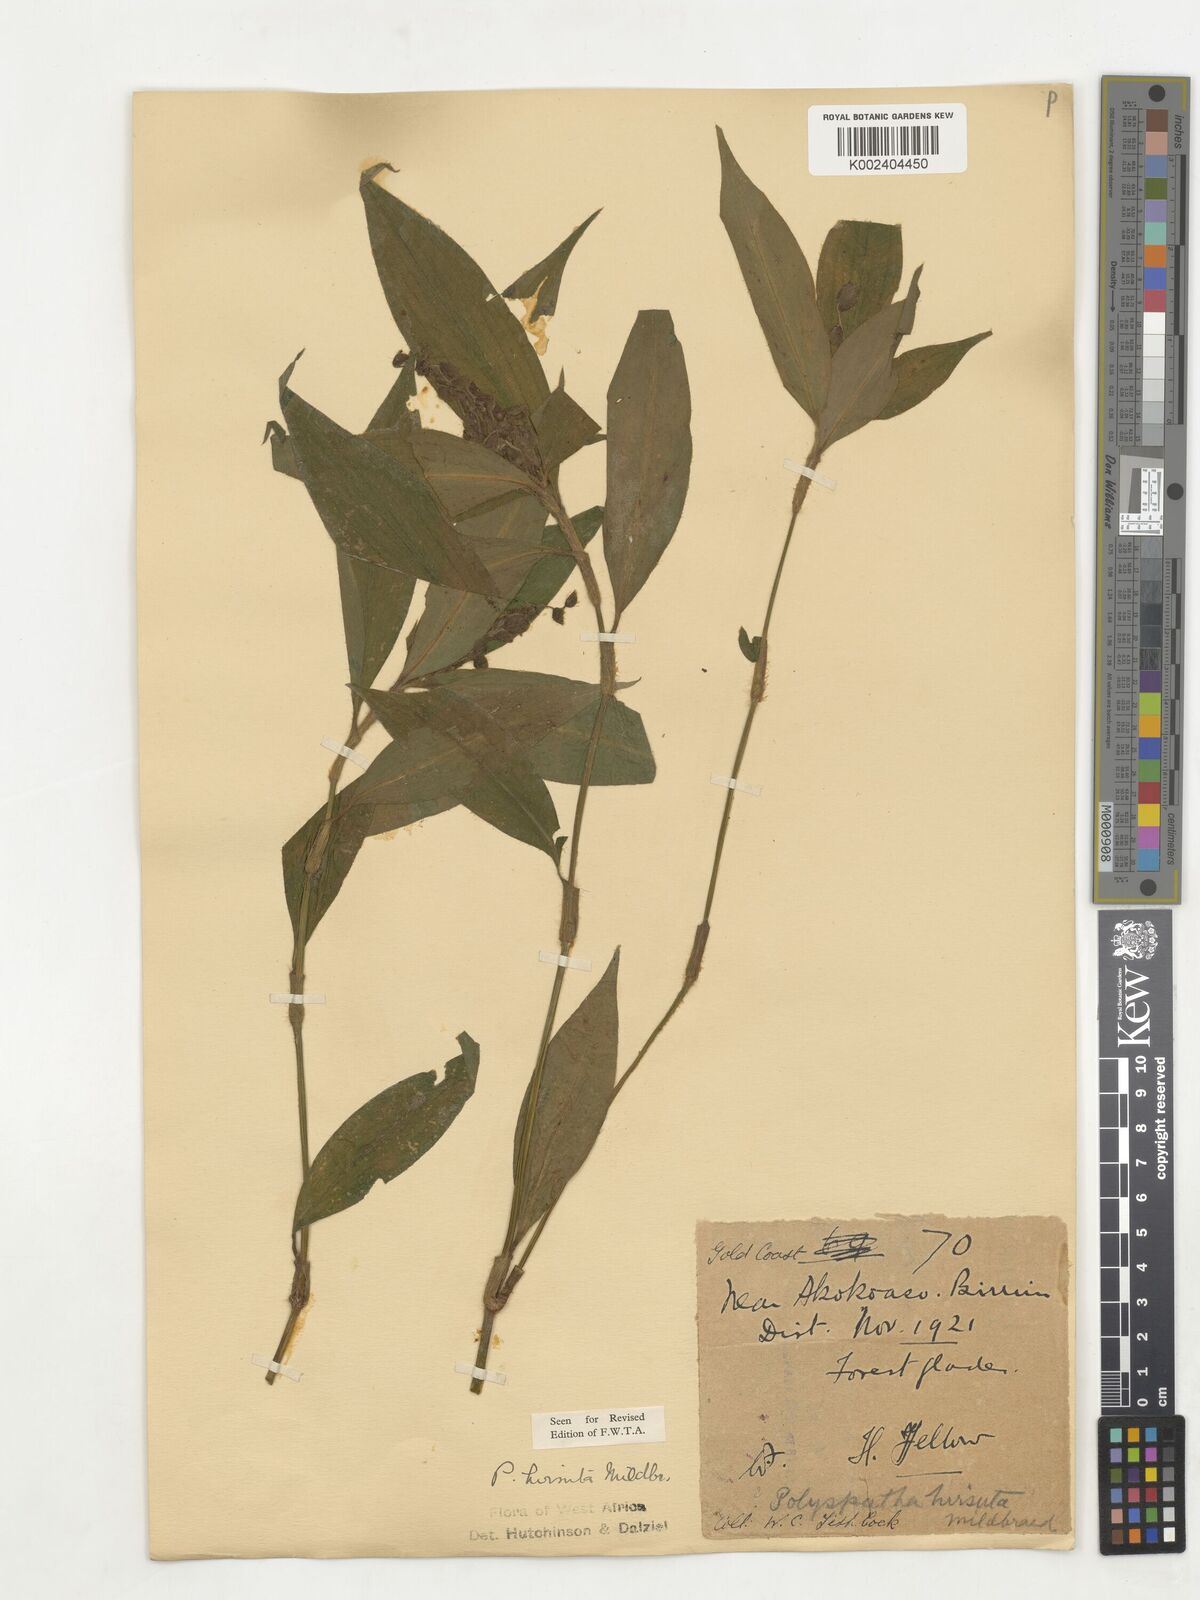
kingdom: Plantae
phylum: Tracheophyta
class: Liliopsida
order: Commelinales
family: Commelinaceae
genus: Polyspatha
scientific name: Polyspatha hirsuta
